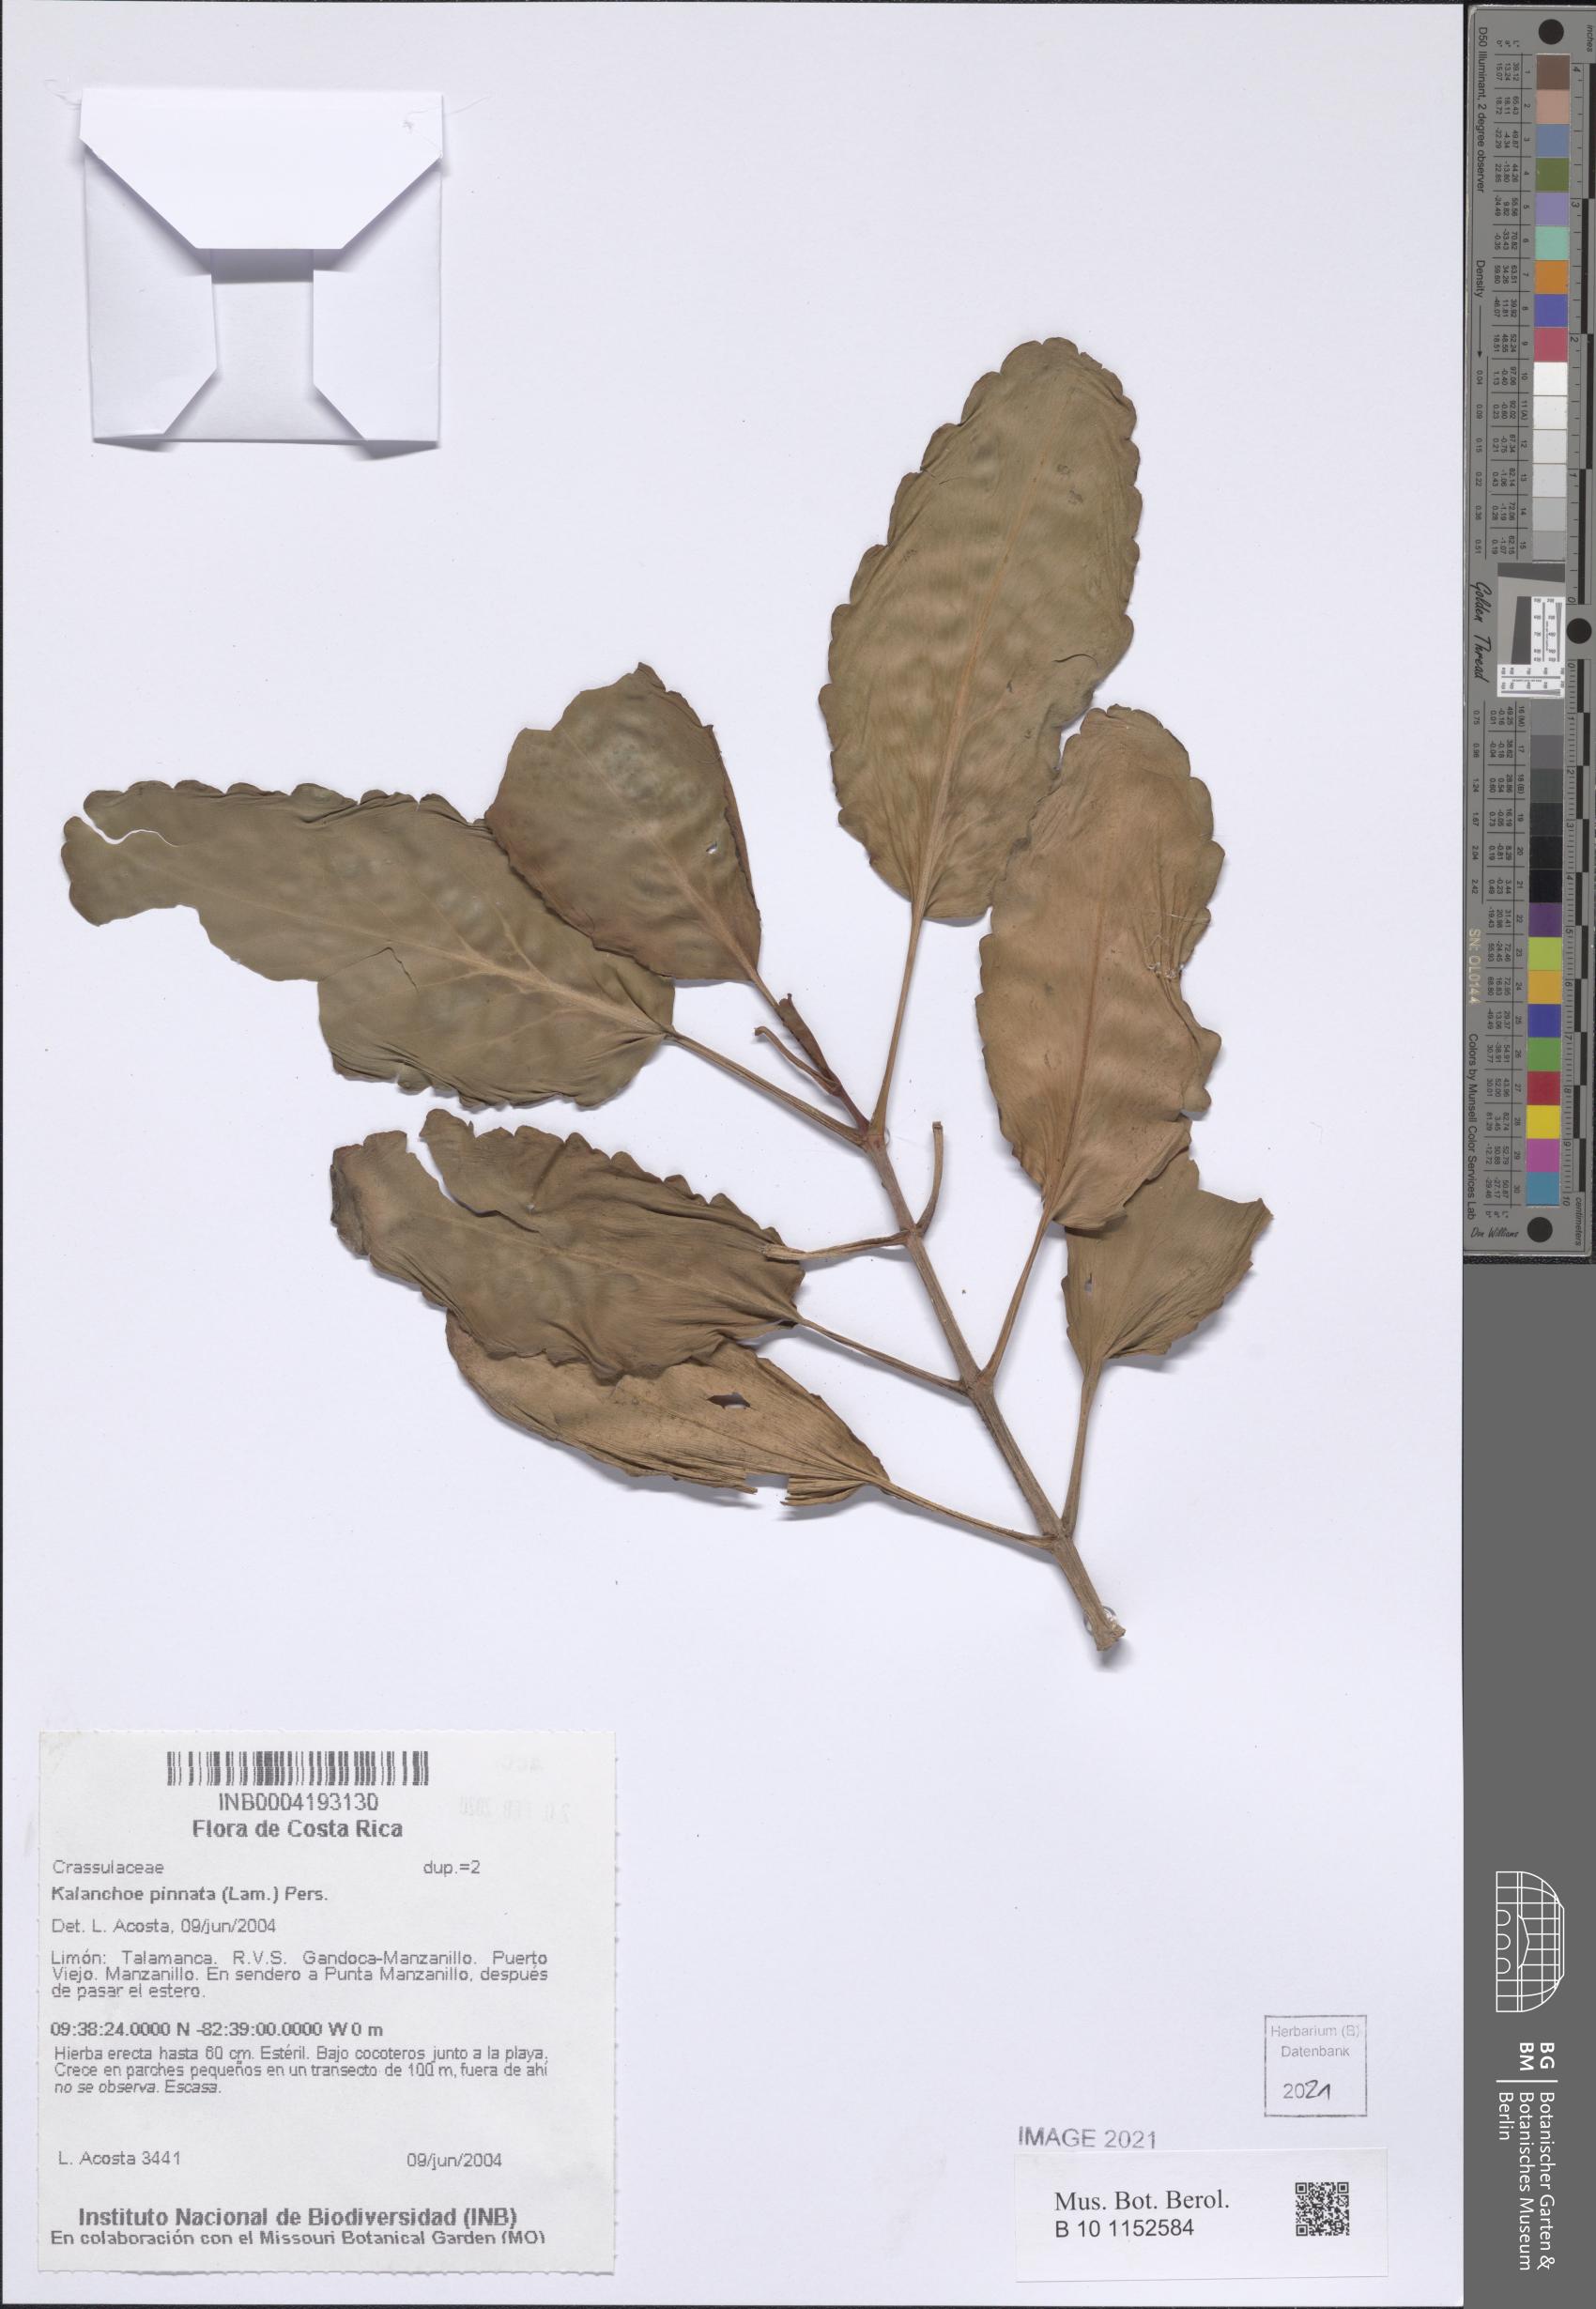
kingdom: Plantae
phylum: Tracheophyta
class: Magnoliopsida
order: Saxifragales
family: Crassulaceae
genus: Kalanchoe
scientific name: Kalanchoe pinnata
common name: Cathedral bells
